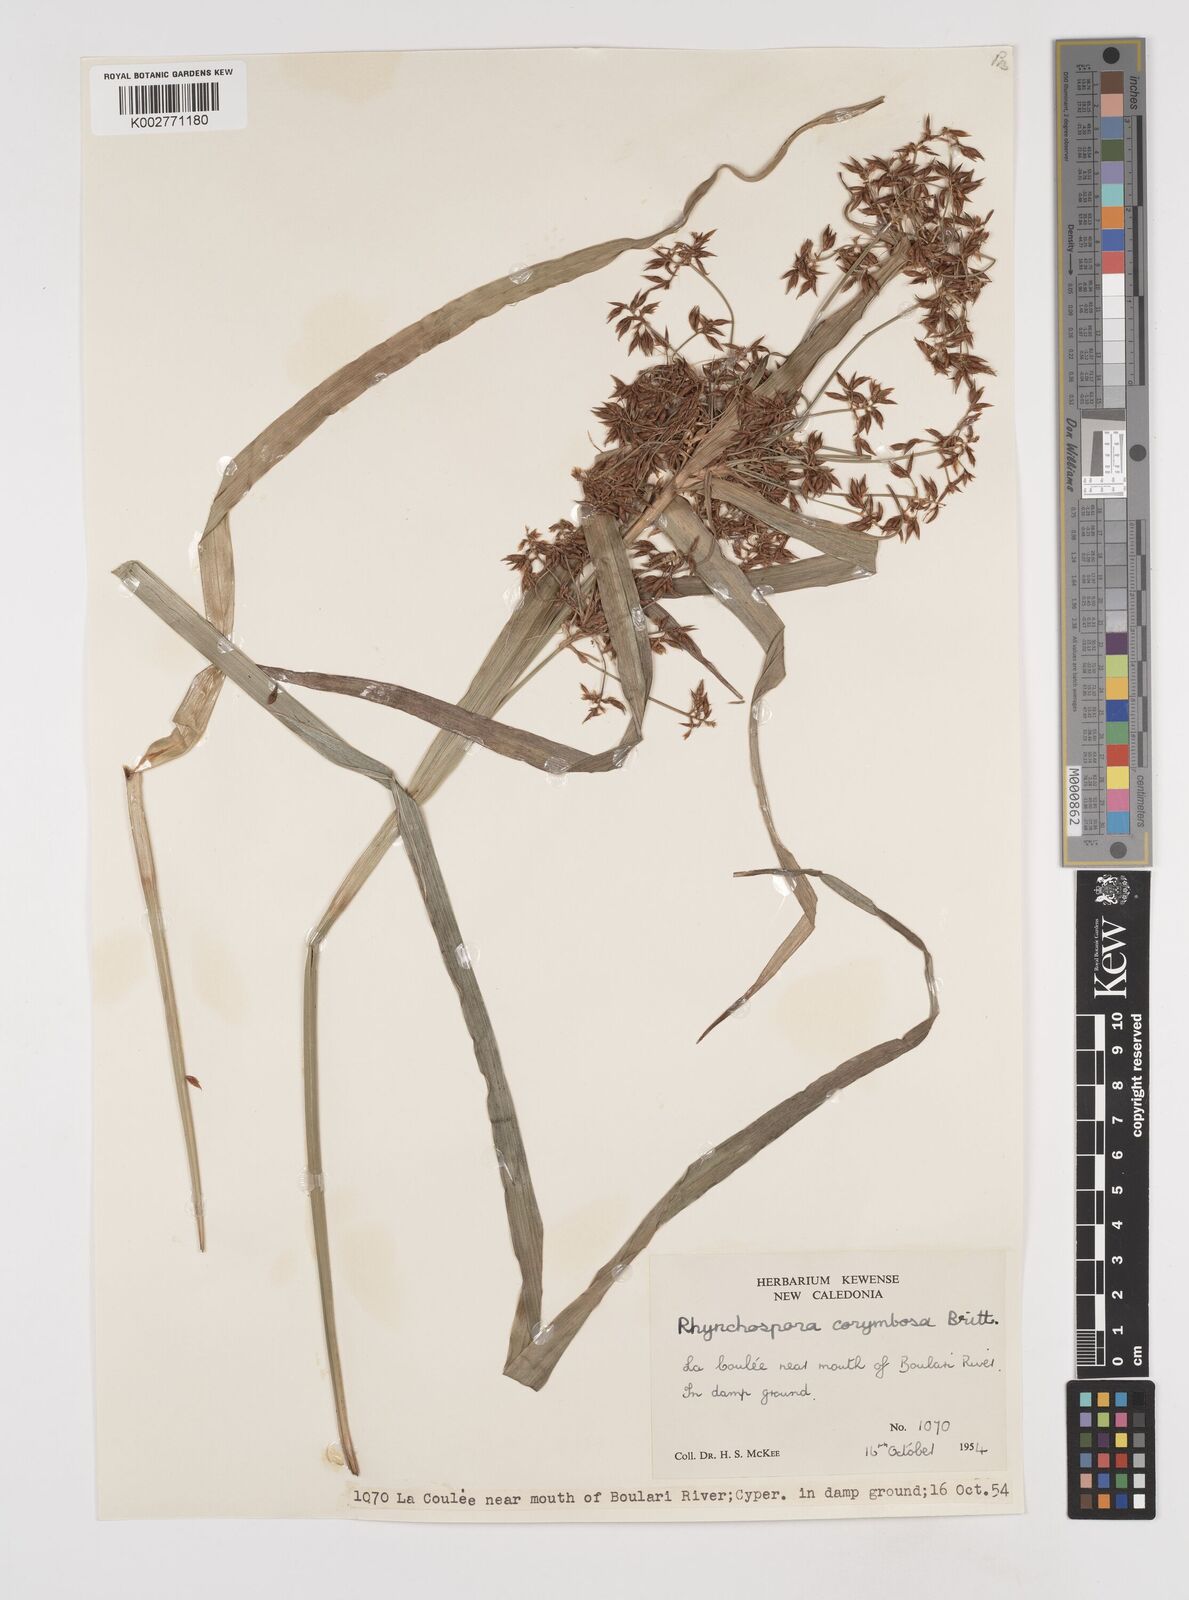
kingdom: Plantae
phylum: Tracheophyta
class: Liliopsida
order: Poales
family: Cyperaceae
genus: Rhynchospora
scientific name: Rhynchospora corymbosa
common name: Golden beak sedge
